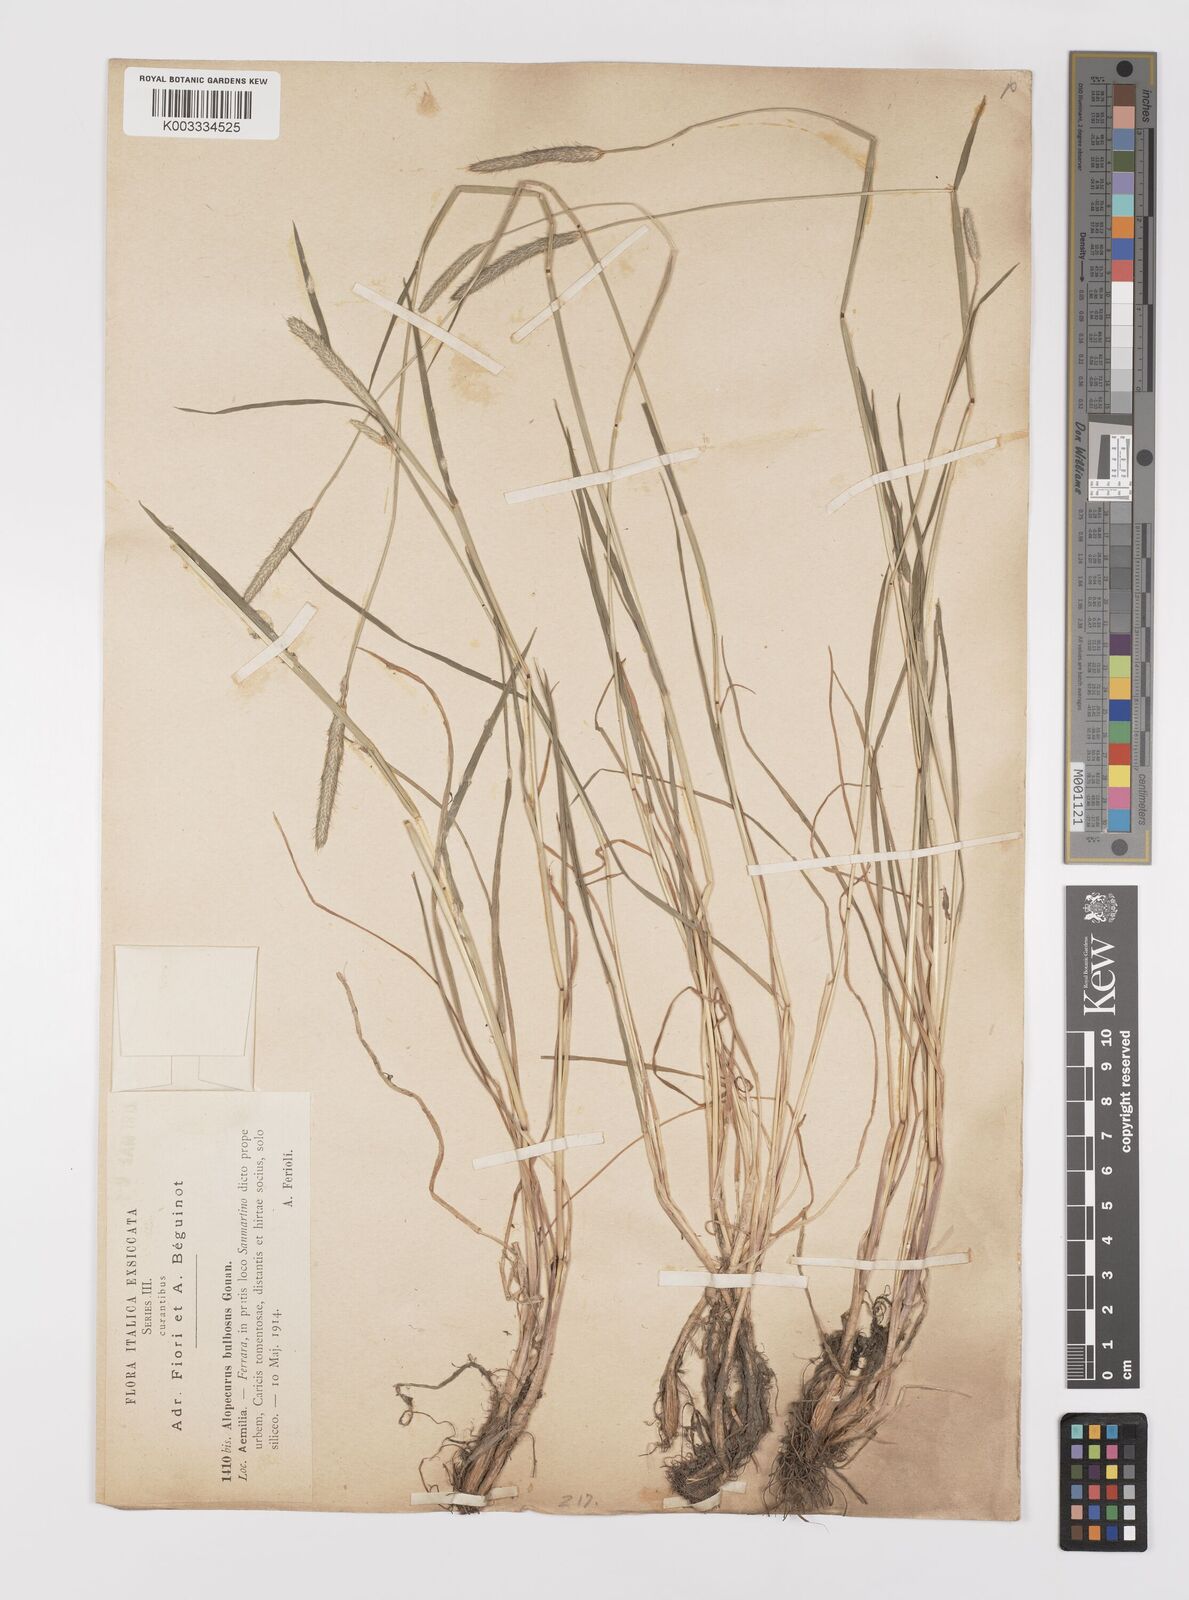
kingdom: Plantae
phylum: Tracheophyta
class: Liliopsida
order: Poales
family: Poaceae
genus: Alopecurus
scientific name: Alopecurus bulbosus
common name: Bulbous foxtail
